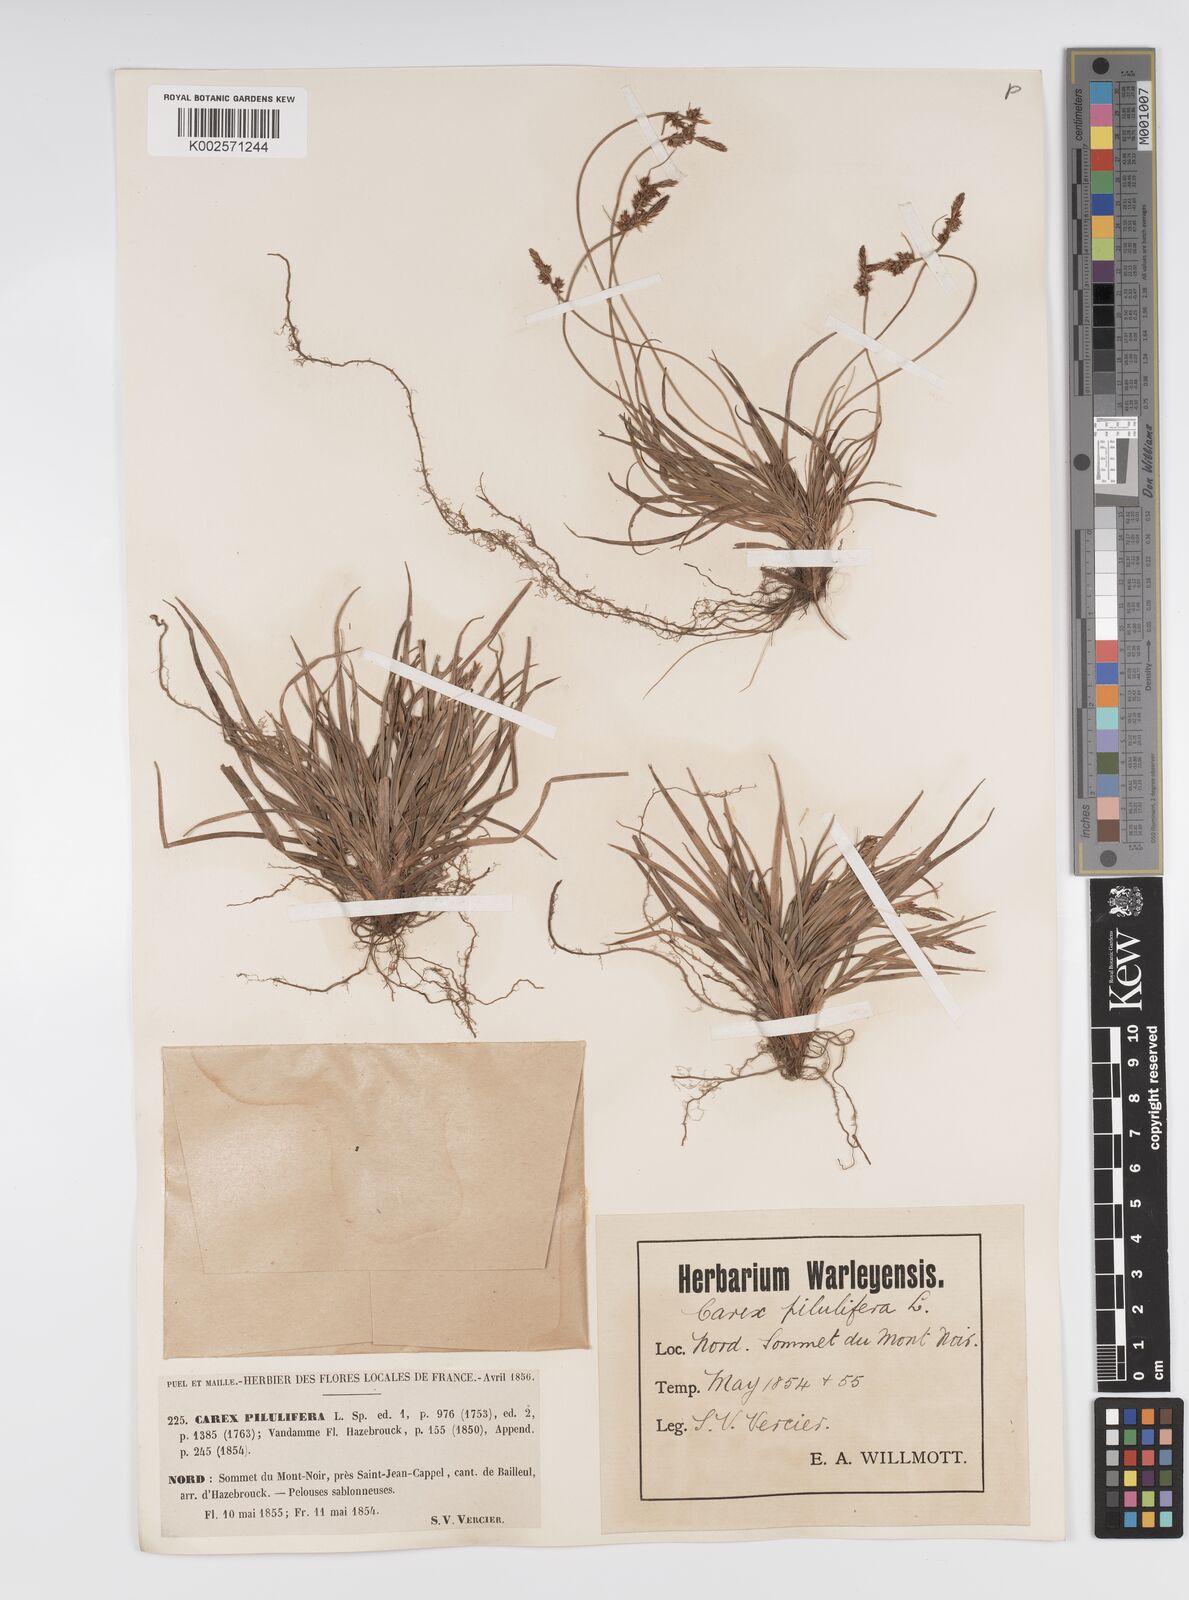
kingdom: Plantae
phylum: Tracheophyta
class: Liliopsida
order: Poales
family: Cyperaceae
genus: Carex
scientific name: Carex pilulifera
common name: Pill sedge
